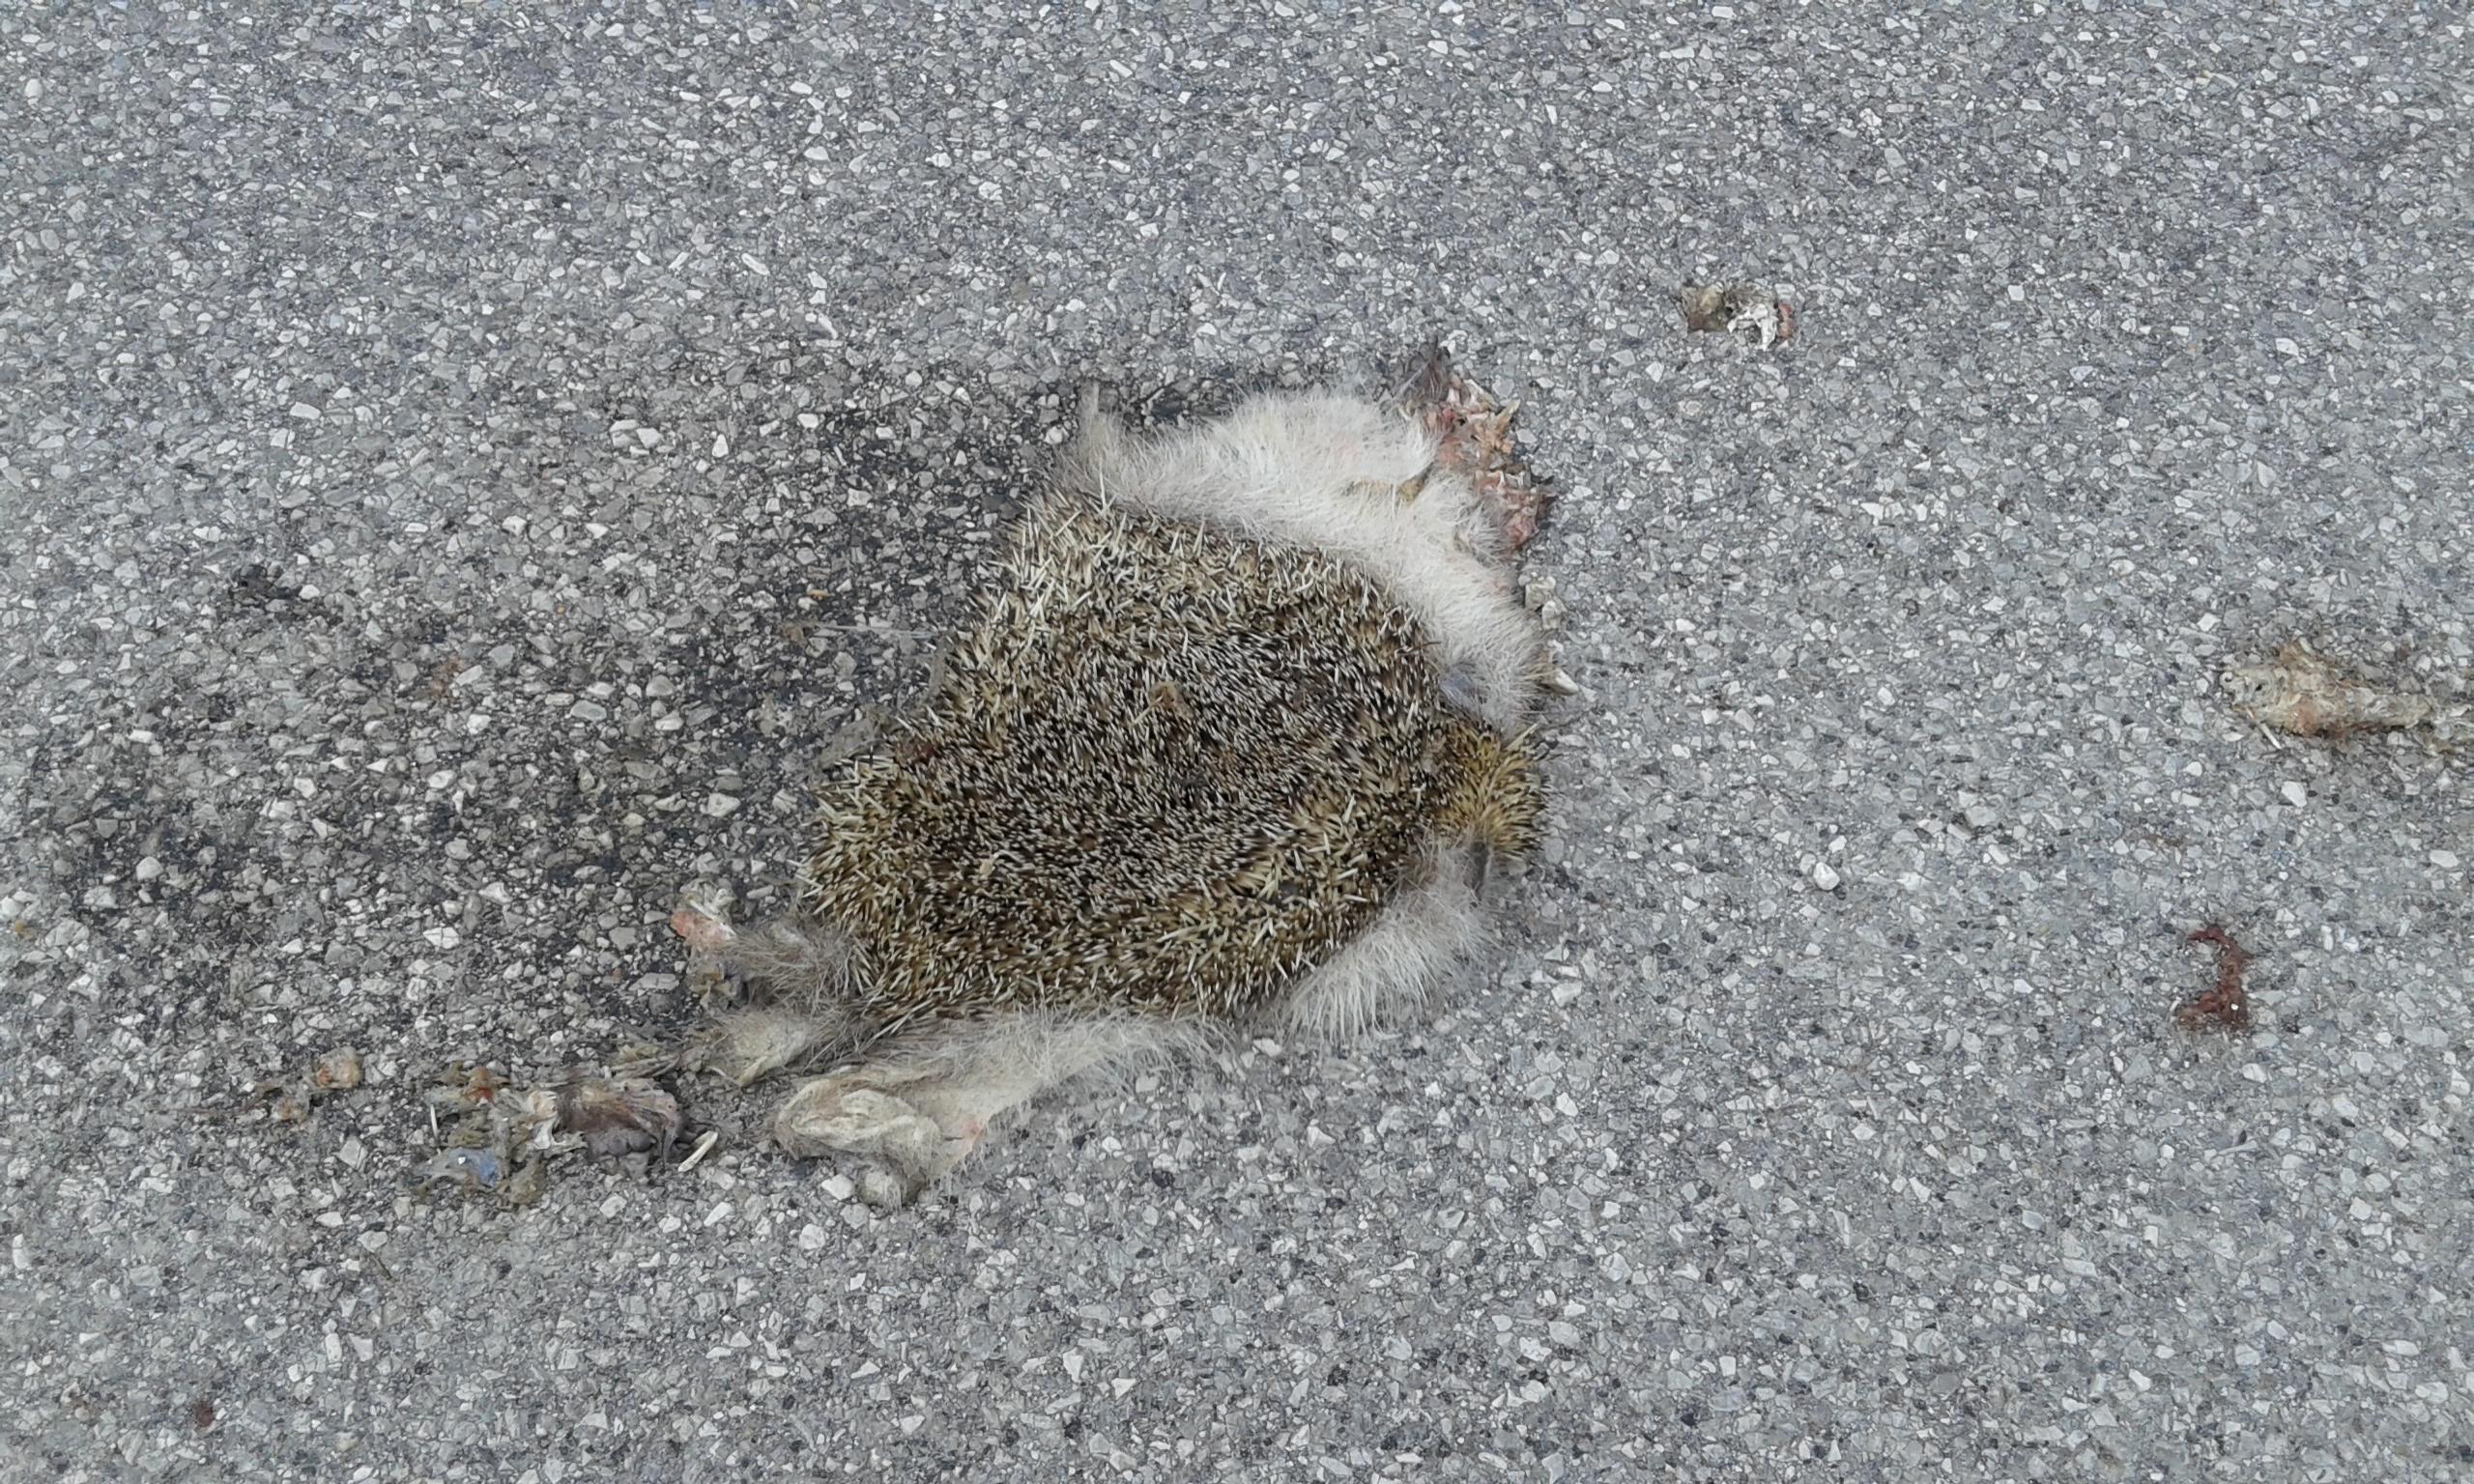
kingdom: Animalia
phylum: Chordata
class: Mammalia
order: Erinaceomorpha
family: Erinaceidae
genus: Erinaceus
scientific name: Erinaceus
